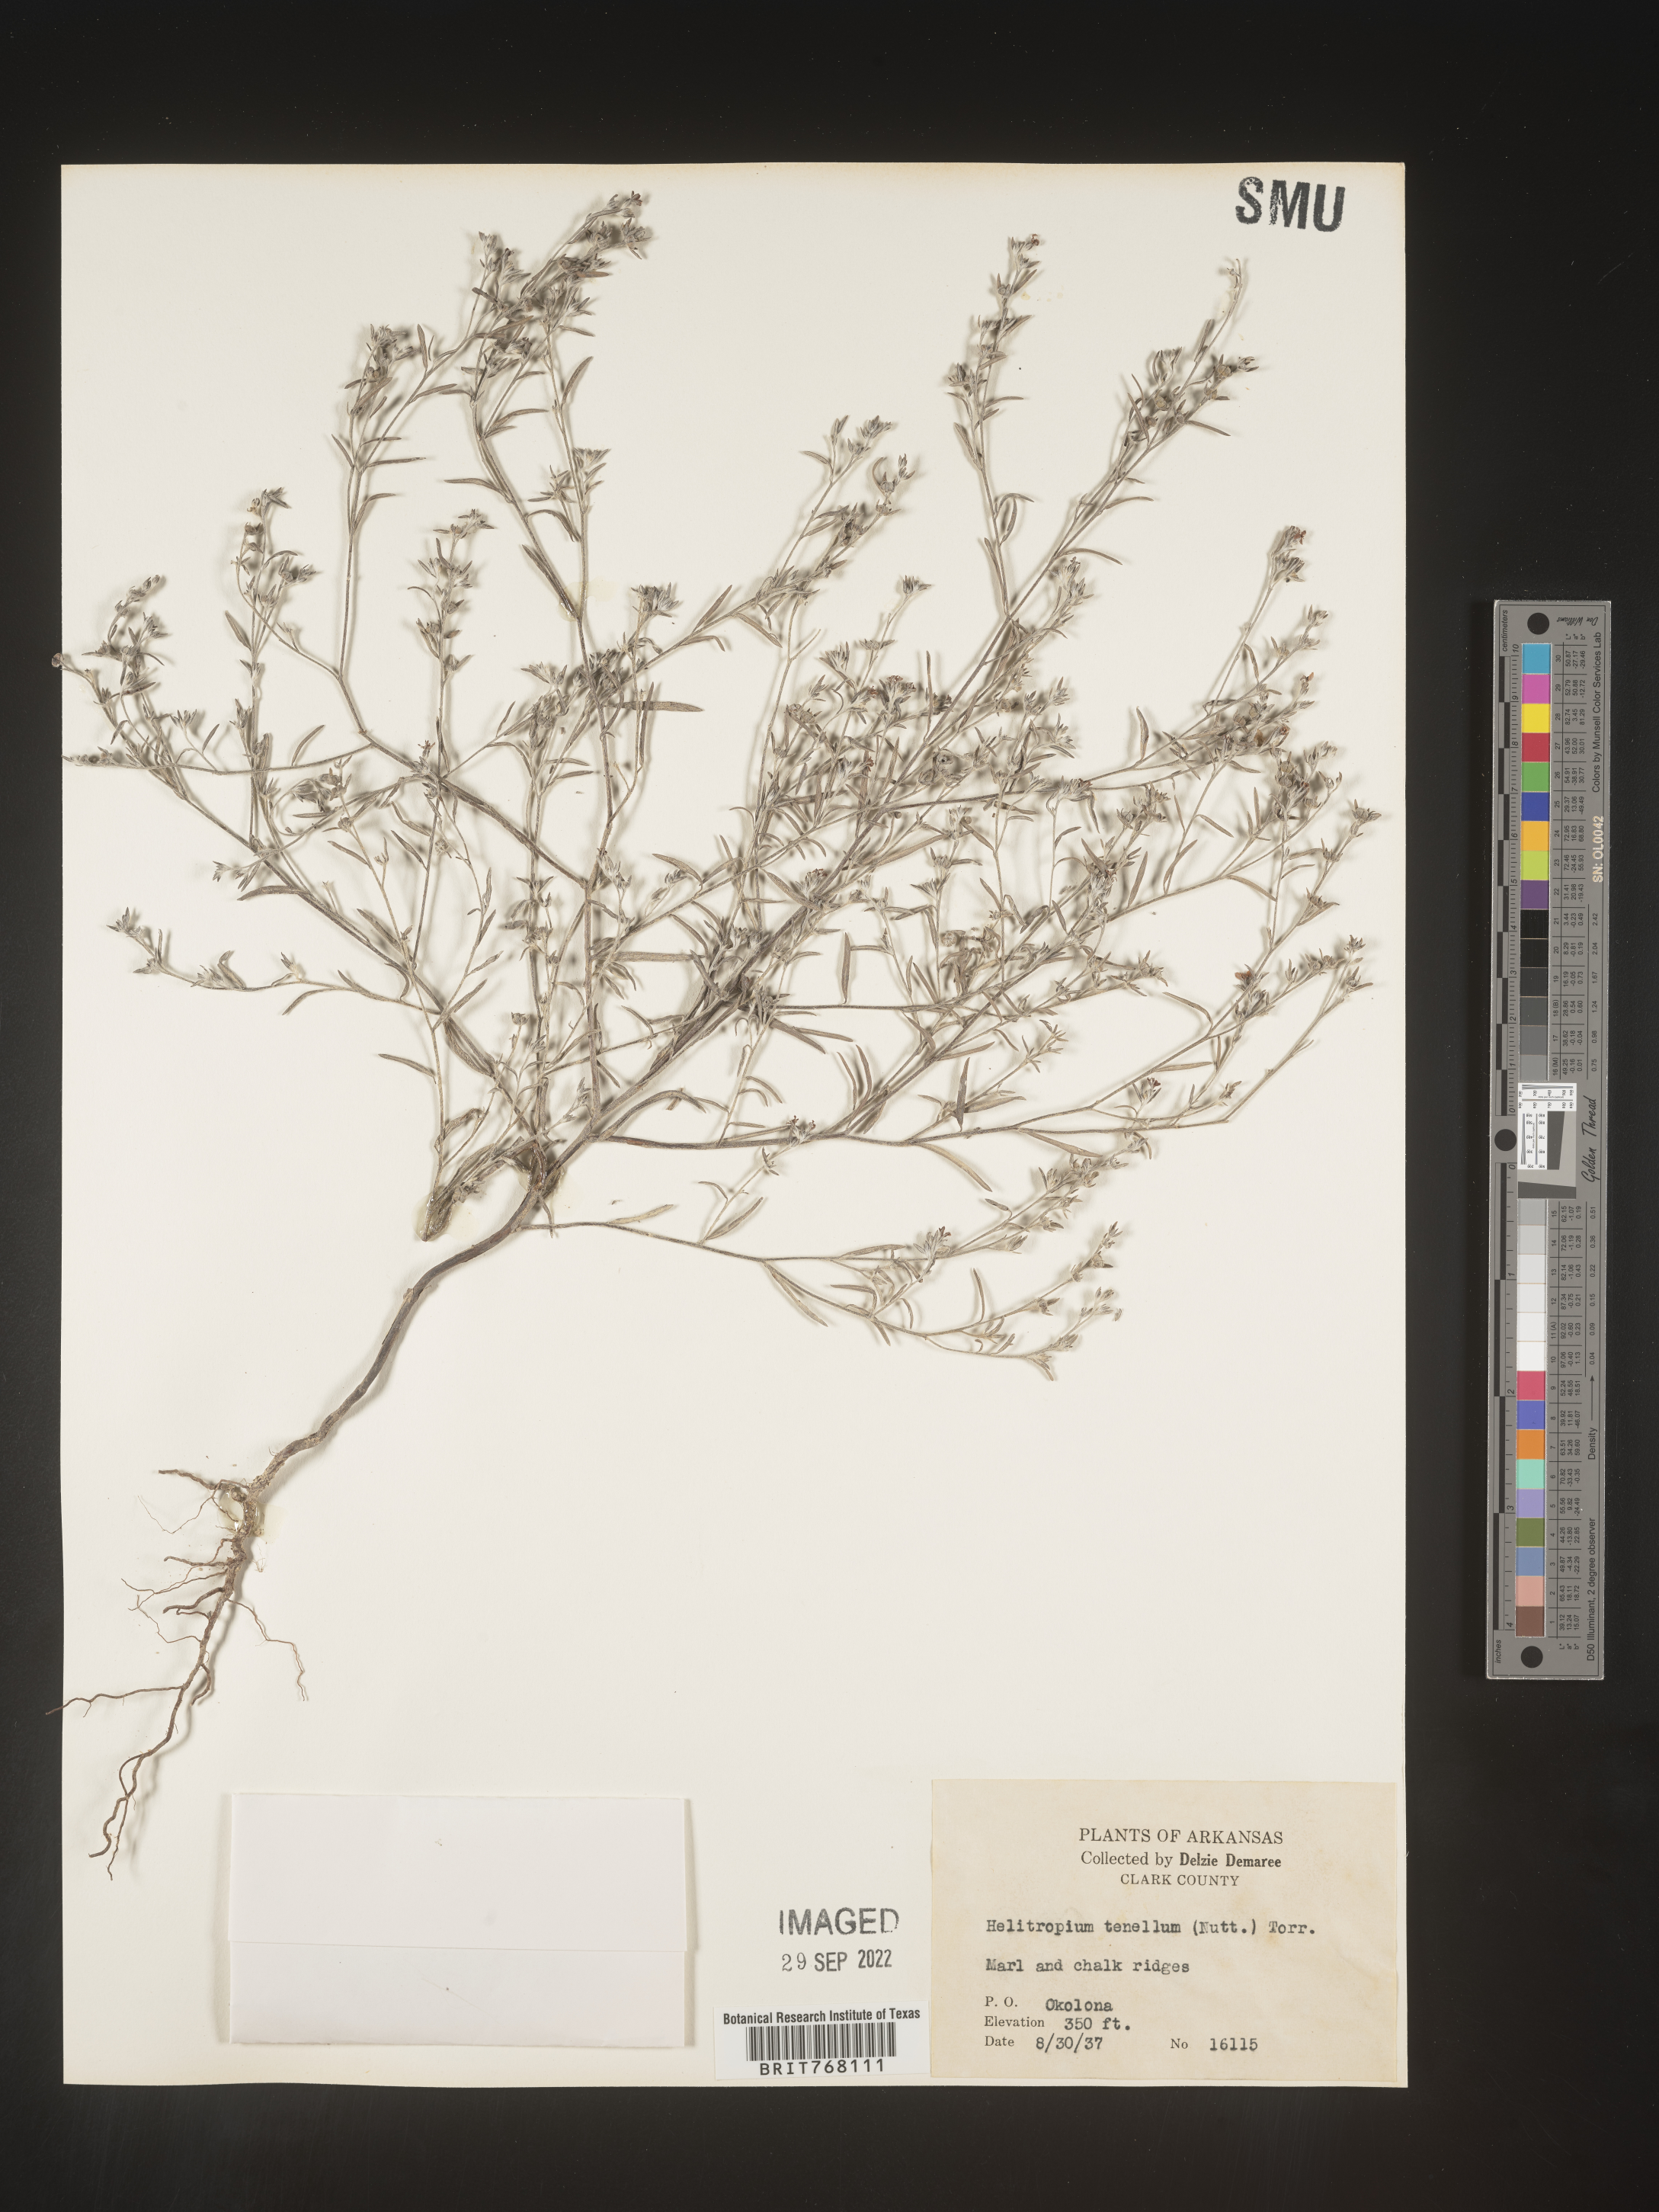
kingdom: Plantae
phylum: Tracheophyta
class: Magnoliopsida
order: Boraginales
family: Heliotropiaceae
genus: Euploca
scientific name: Euploca tenella
